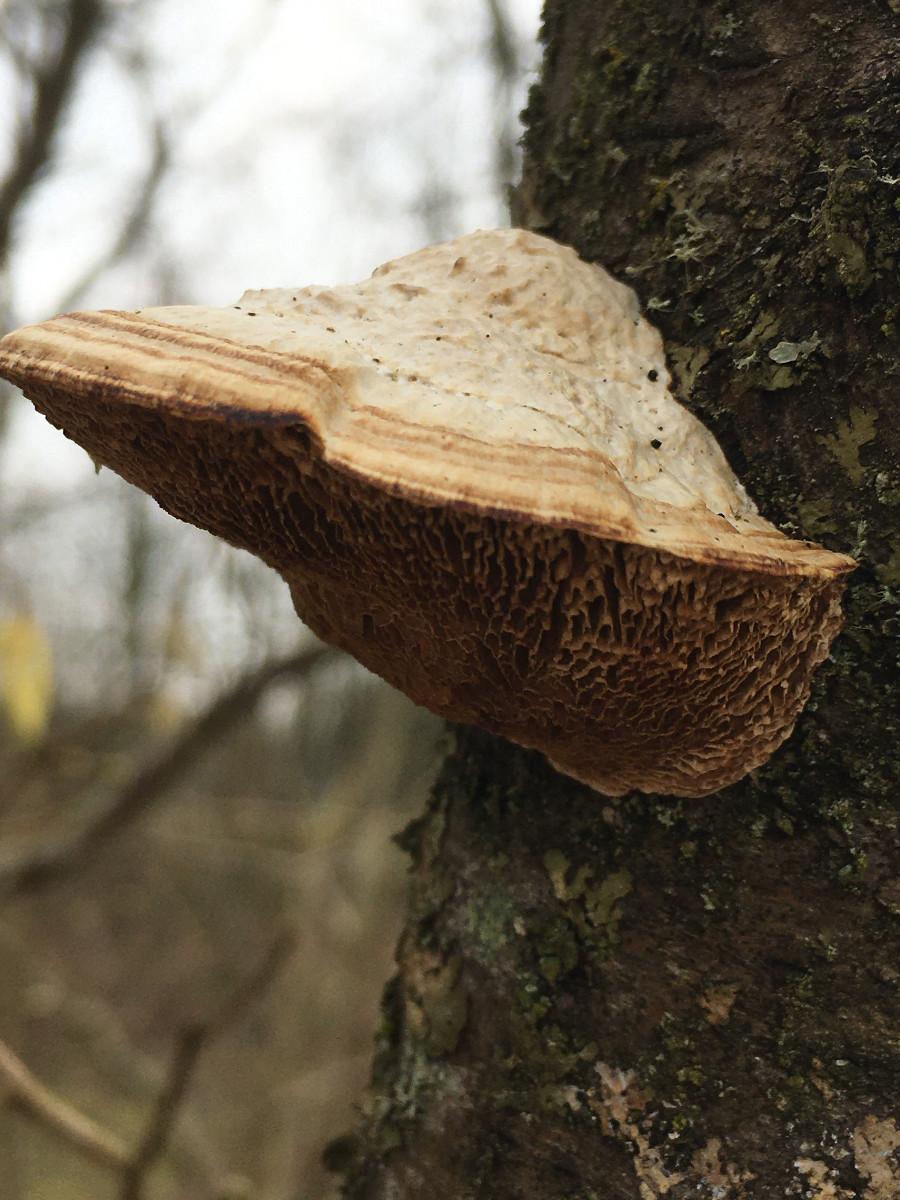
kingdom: Fungi
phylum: Basidiomycota
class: Agaricomycetes
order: Polyporales
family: Polyporaceae
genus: Daedaleopsis
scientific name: Daedaleopsis confragosa
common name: rødmende læderporesvamp
